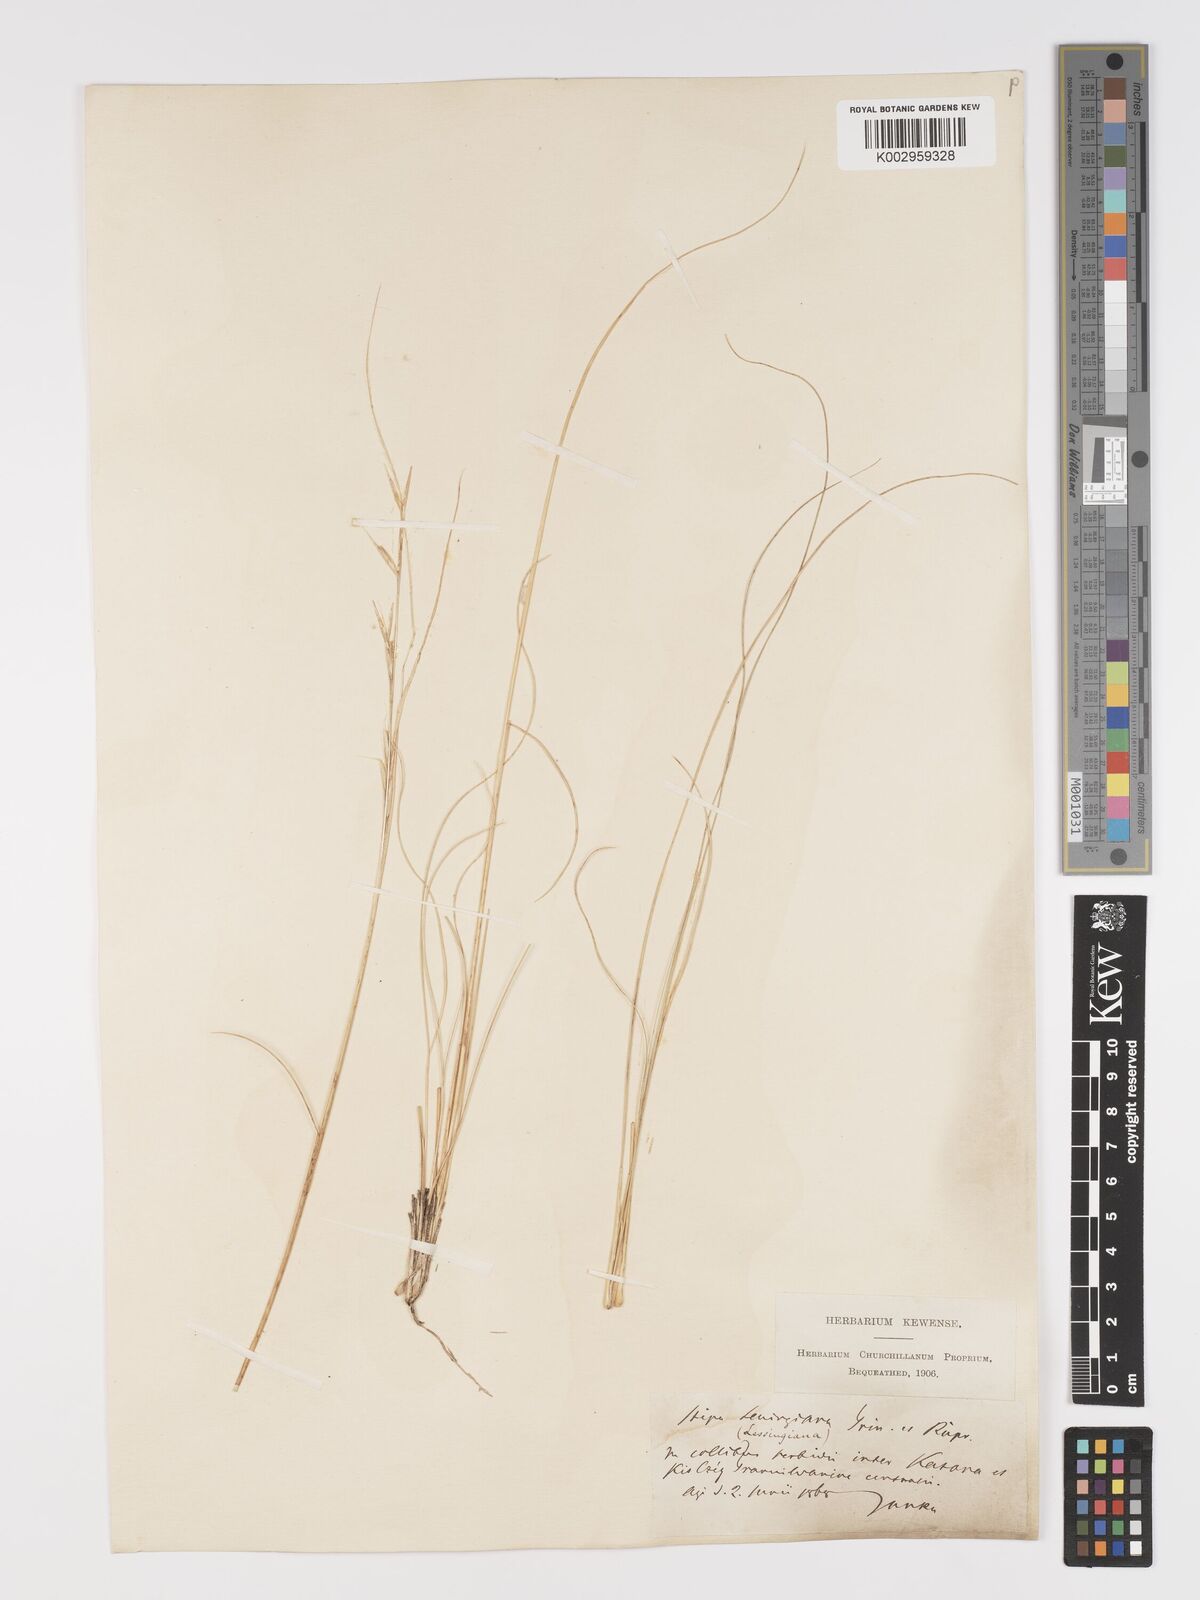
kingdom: Plantae
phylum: Tracheophyta
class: Liliopsida
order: Poales
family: Poaceae
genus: Stipa
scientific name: Stipa lessingiana
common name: Needle grass
